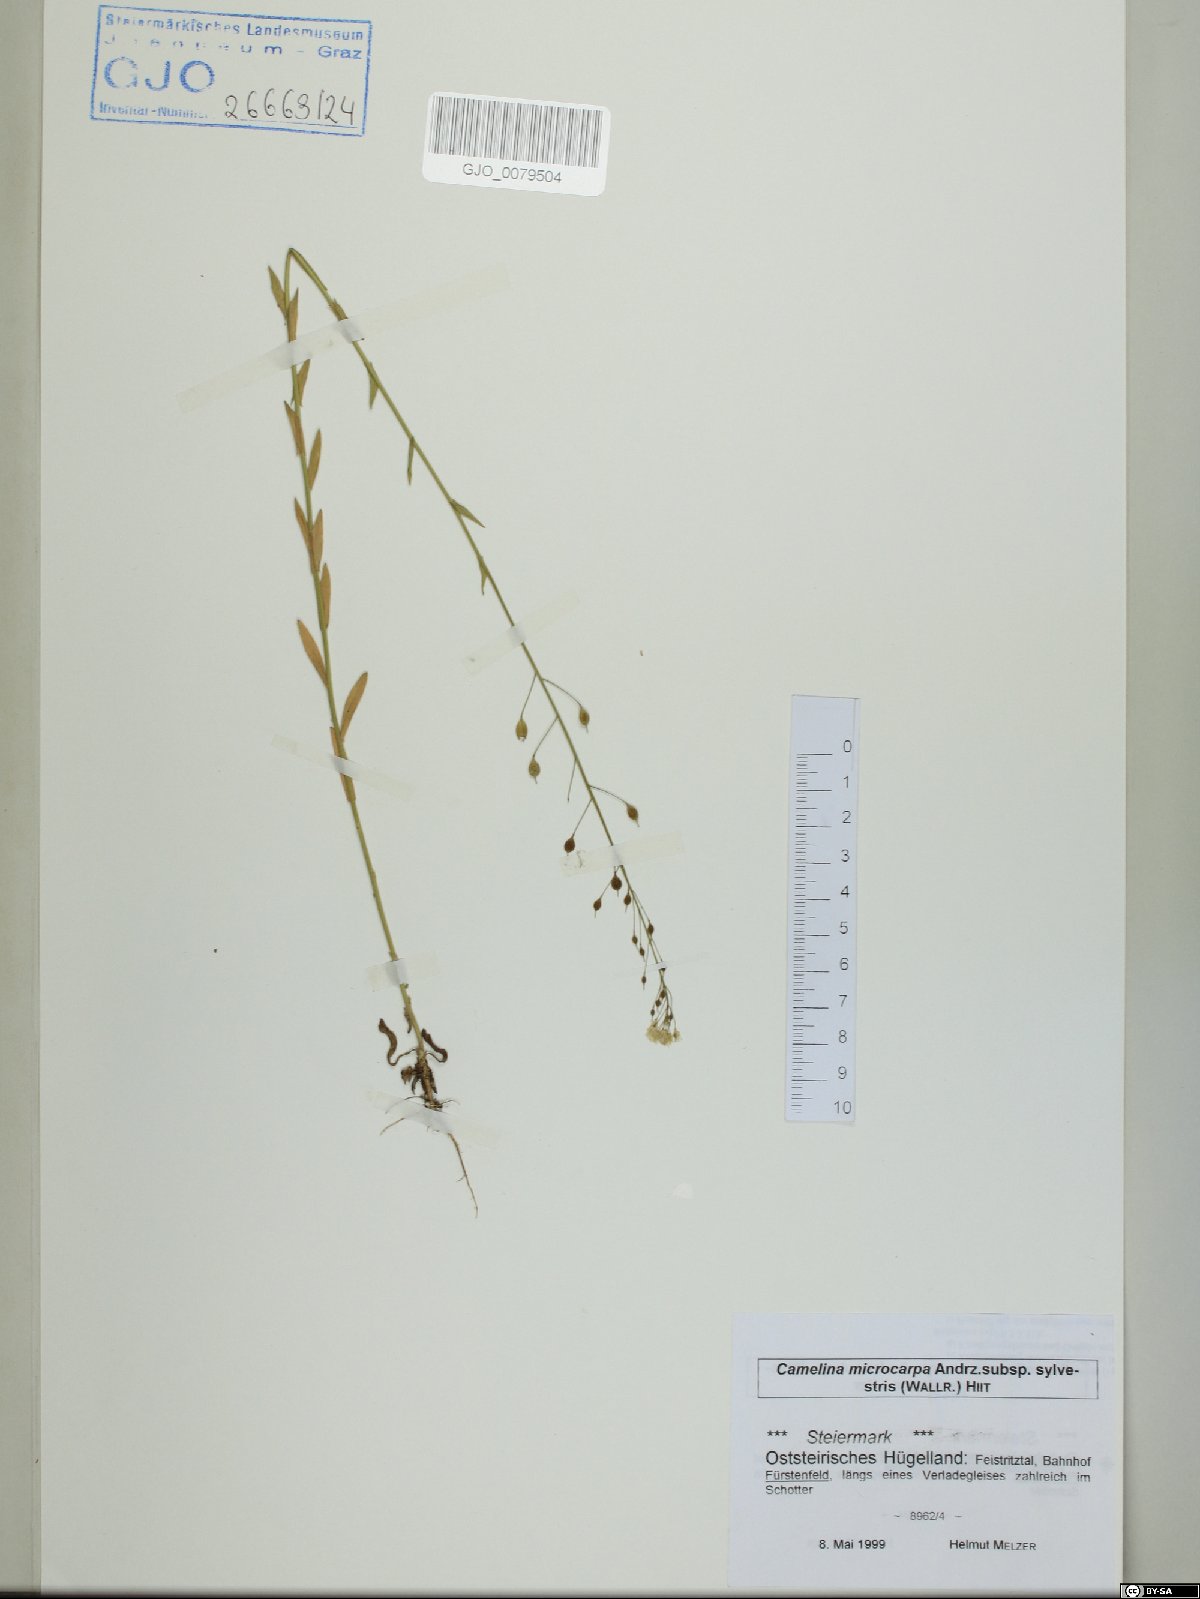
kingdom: Plantae
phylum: Tracheophyta
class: Magnoliopsida
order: Brassicales
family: Brassicaceae
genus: Camelina
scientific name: Camelina microcarpa
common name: Lesser gold-of-pleasure
